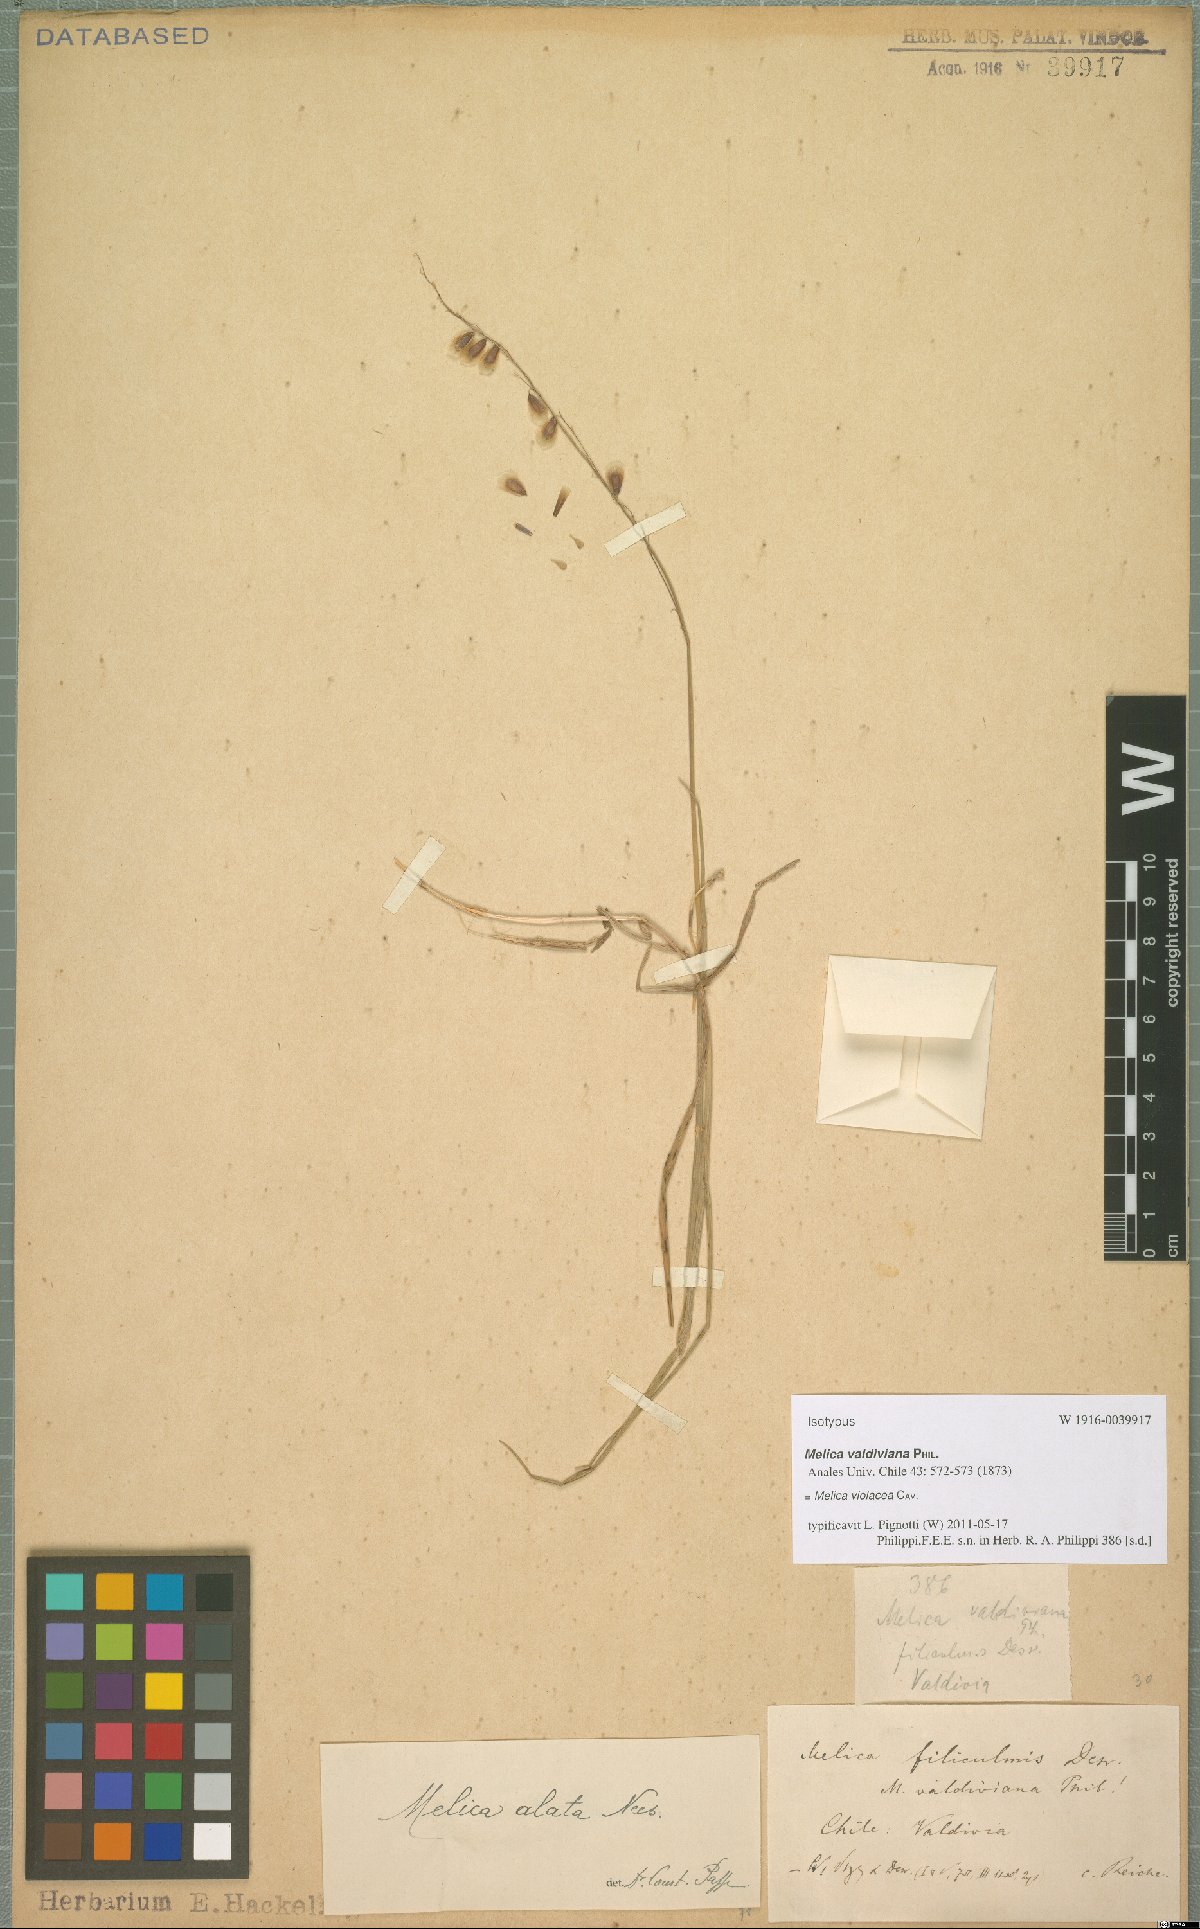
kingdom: Plantae
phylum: Tracheophyta
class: Liliopsida
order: Poales
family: Poaceae
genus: Melica
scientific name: Melica violacea
